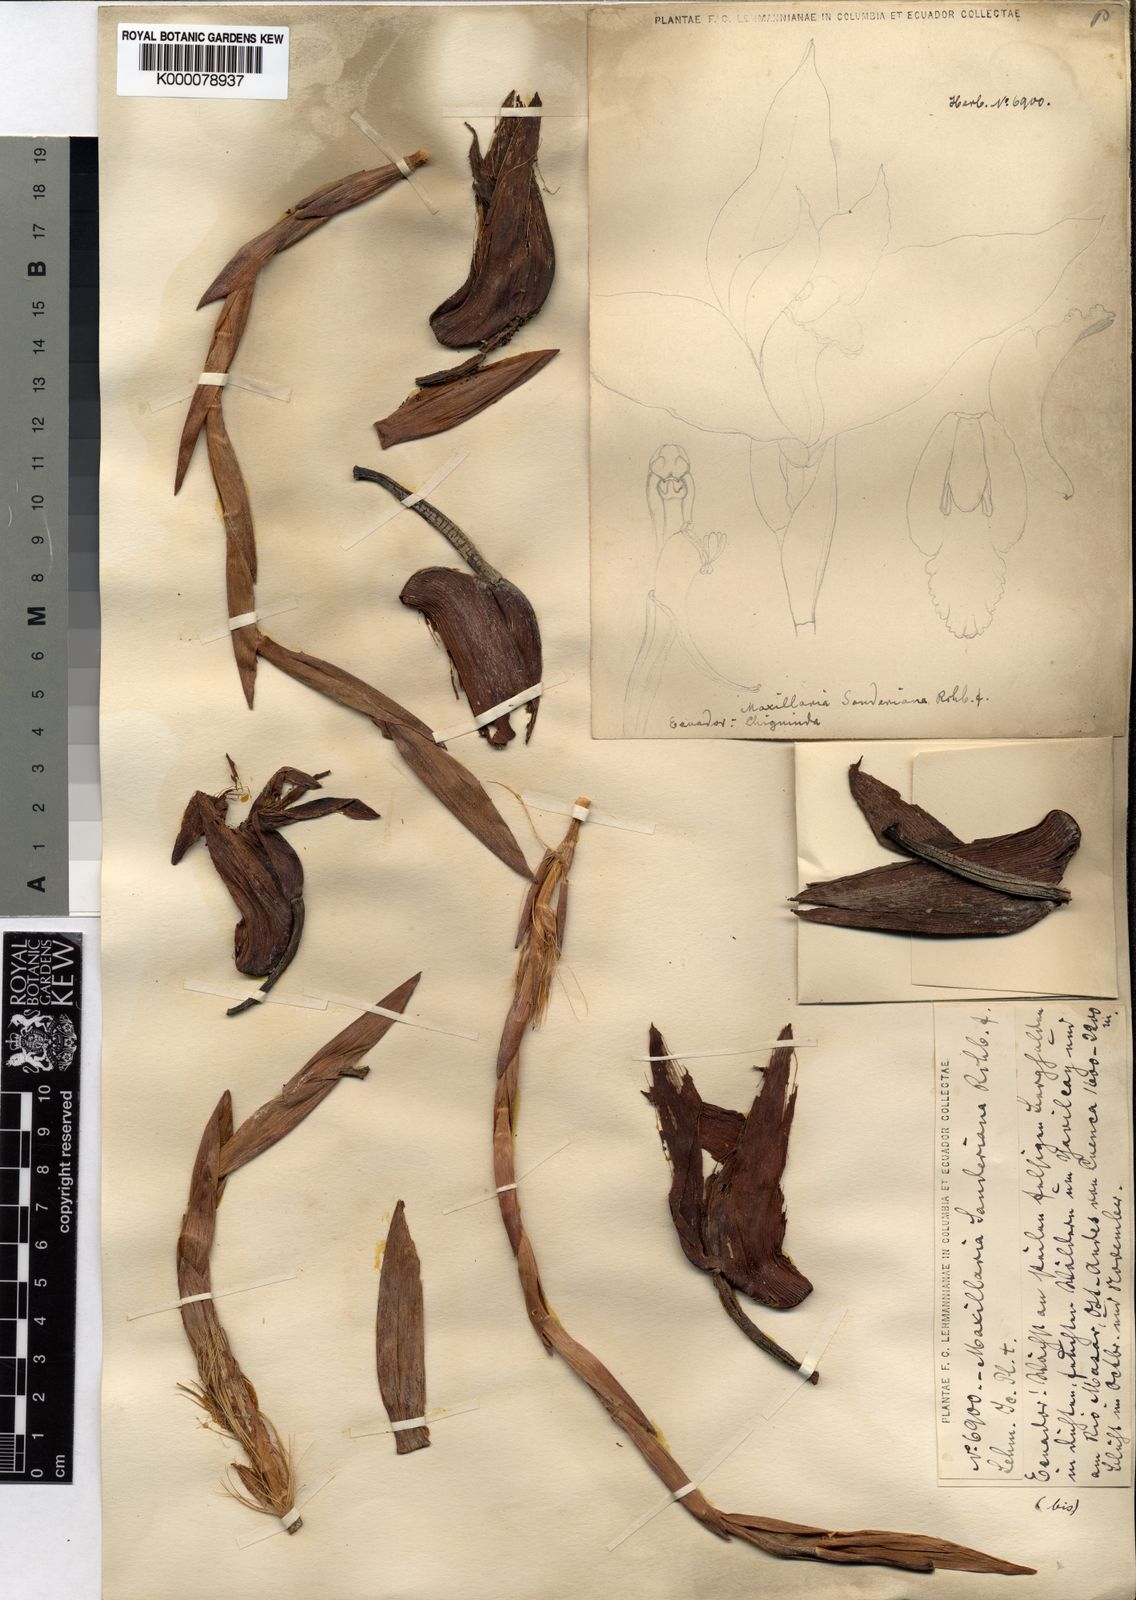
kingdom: Plantae
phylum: Tracheophyta
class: Liliopsida
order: Asparagales
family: Orchidaceae
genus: Maxillaria
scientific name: Maxillaria
